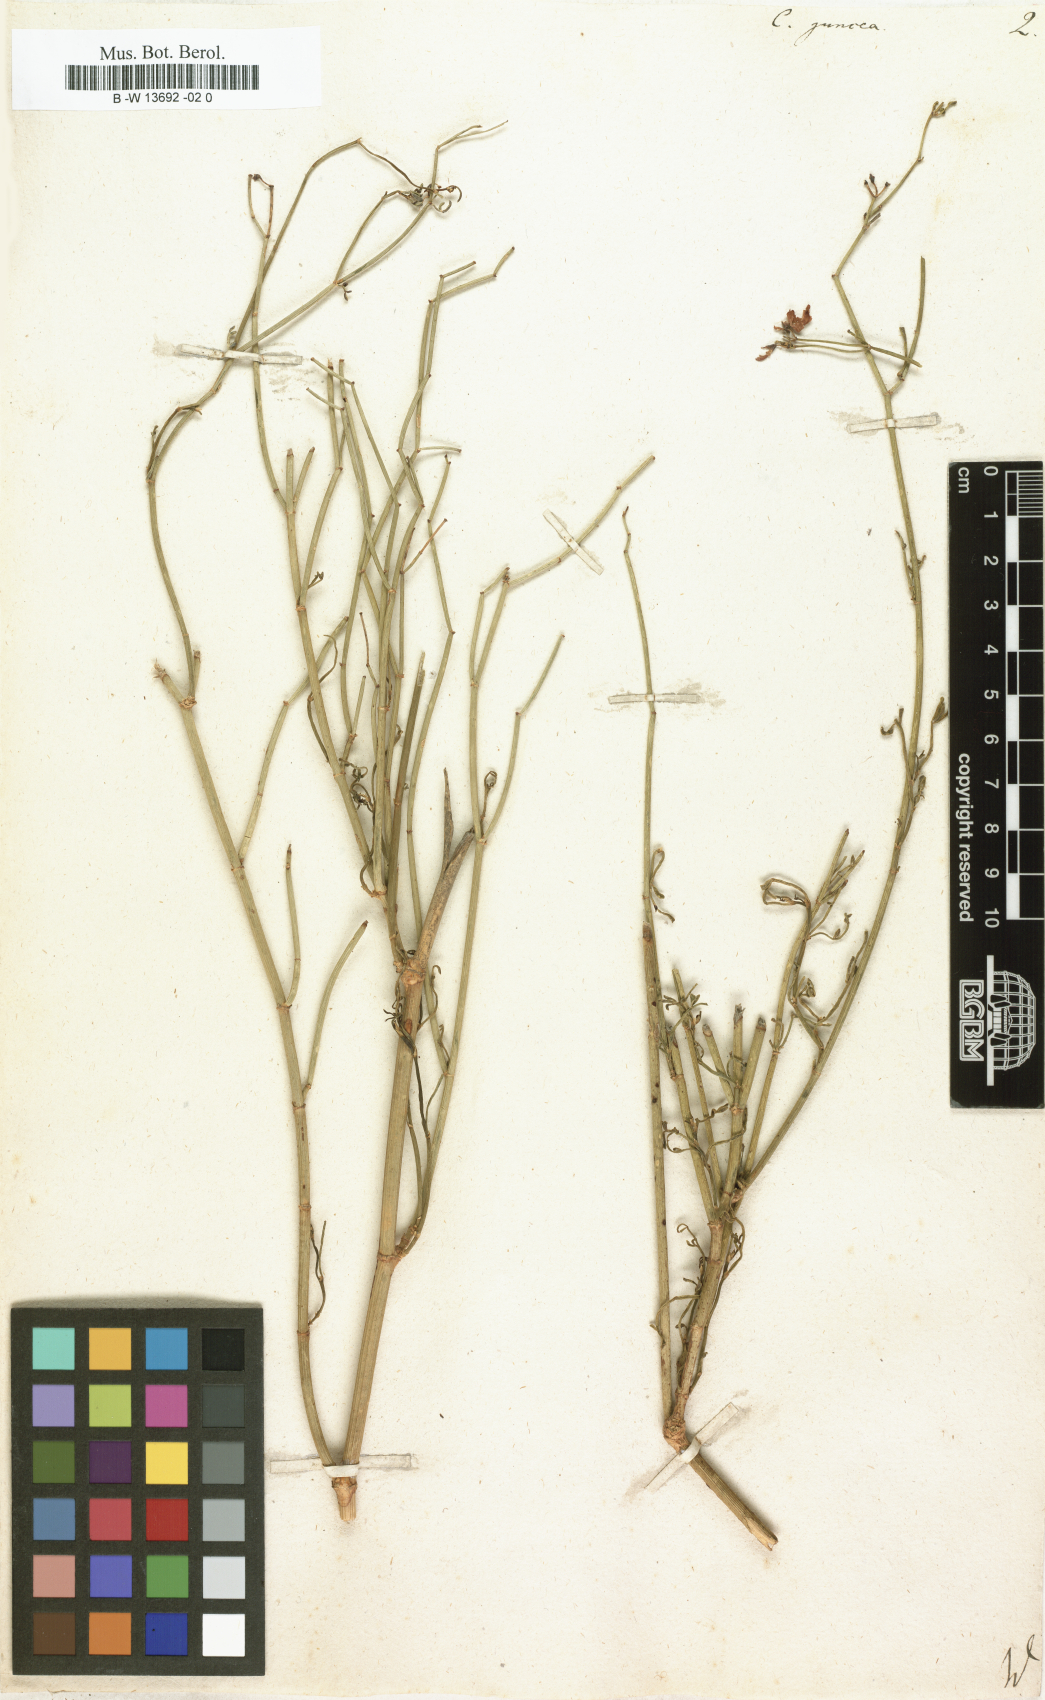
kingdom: Plantae
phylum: Tracheophyta
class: Magnoliopsida
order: Fabales
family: Fabaceae
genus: Coronilla
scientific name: Coronilla juncea
